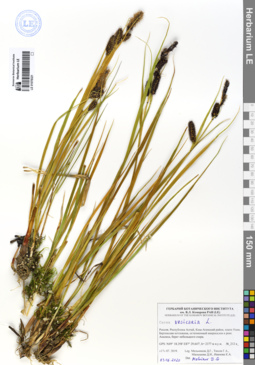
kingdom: Plantae
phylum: Tracheophyta
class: Liliopsida
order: Poales
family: Cyperaceae
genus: Carex
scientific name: Carex vesicaria
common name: Bladder-sedge
